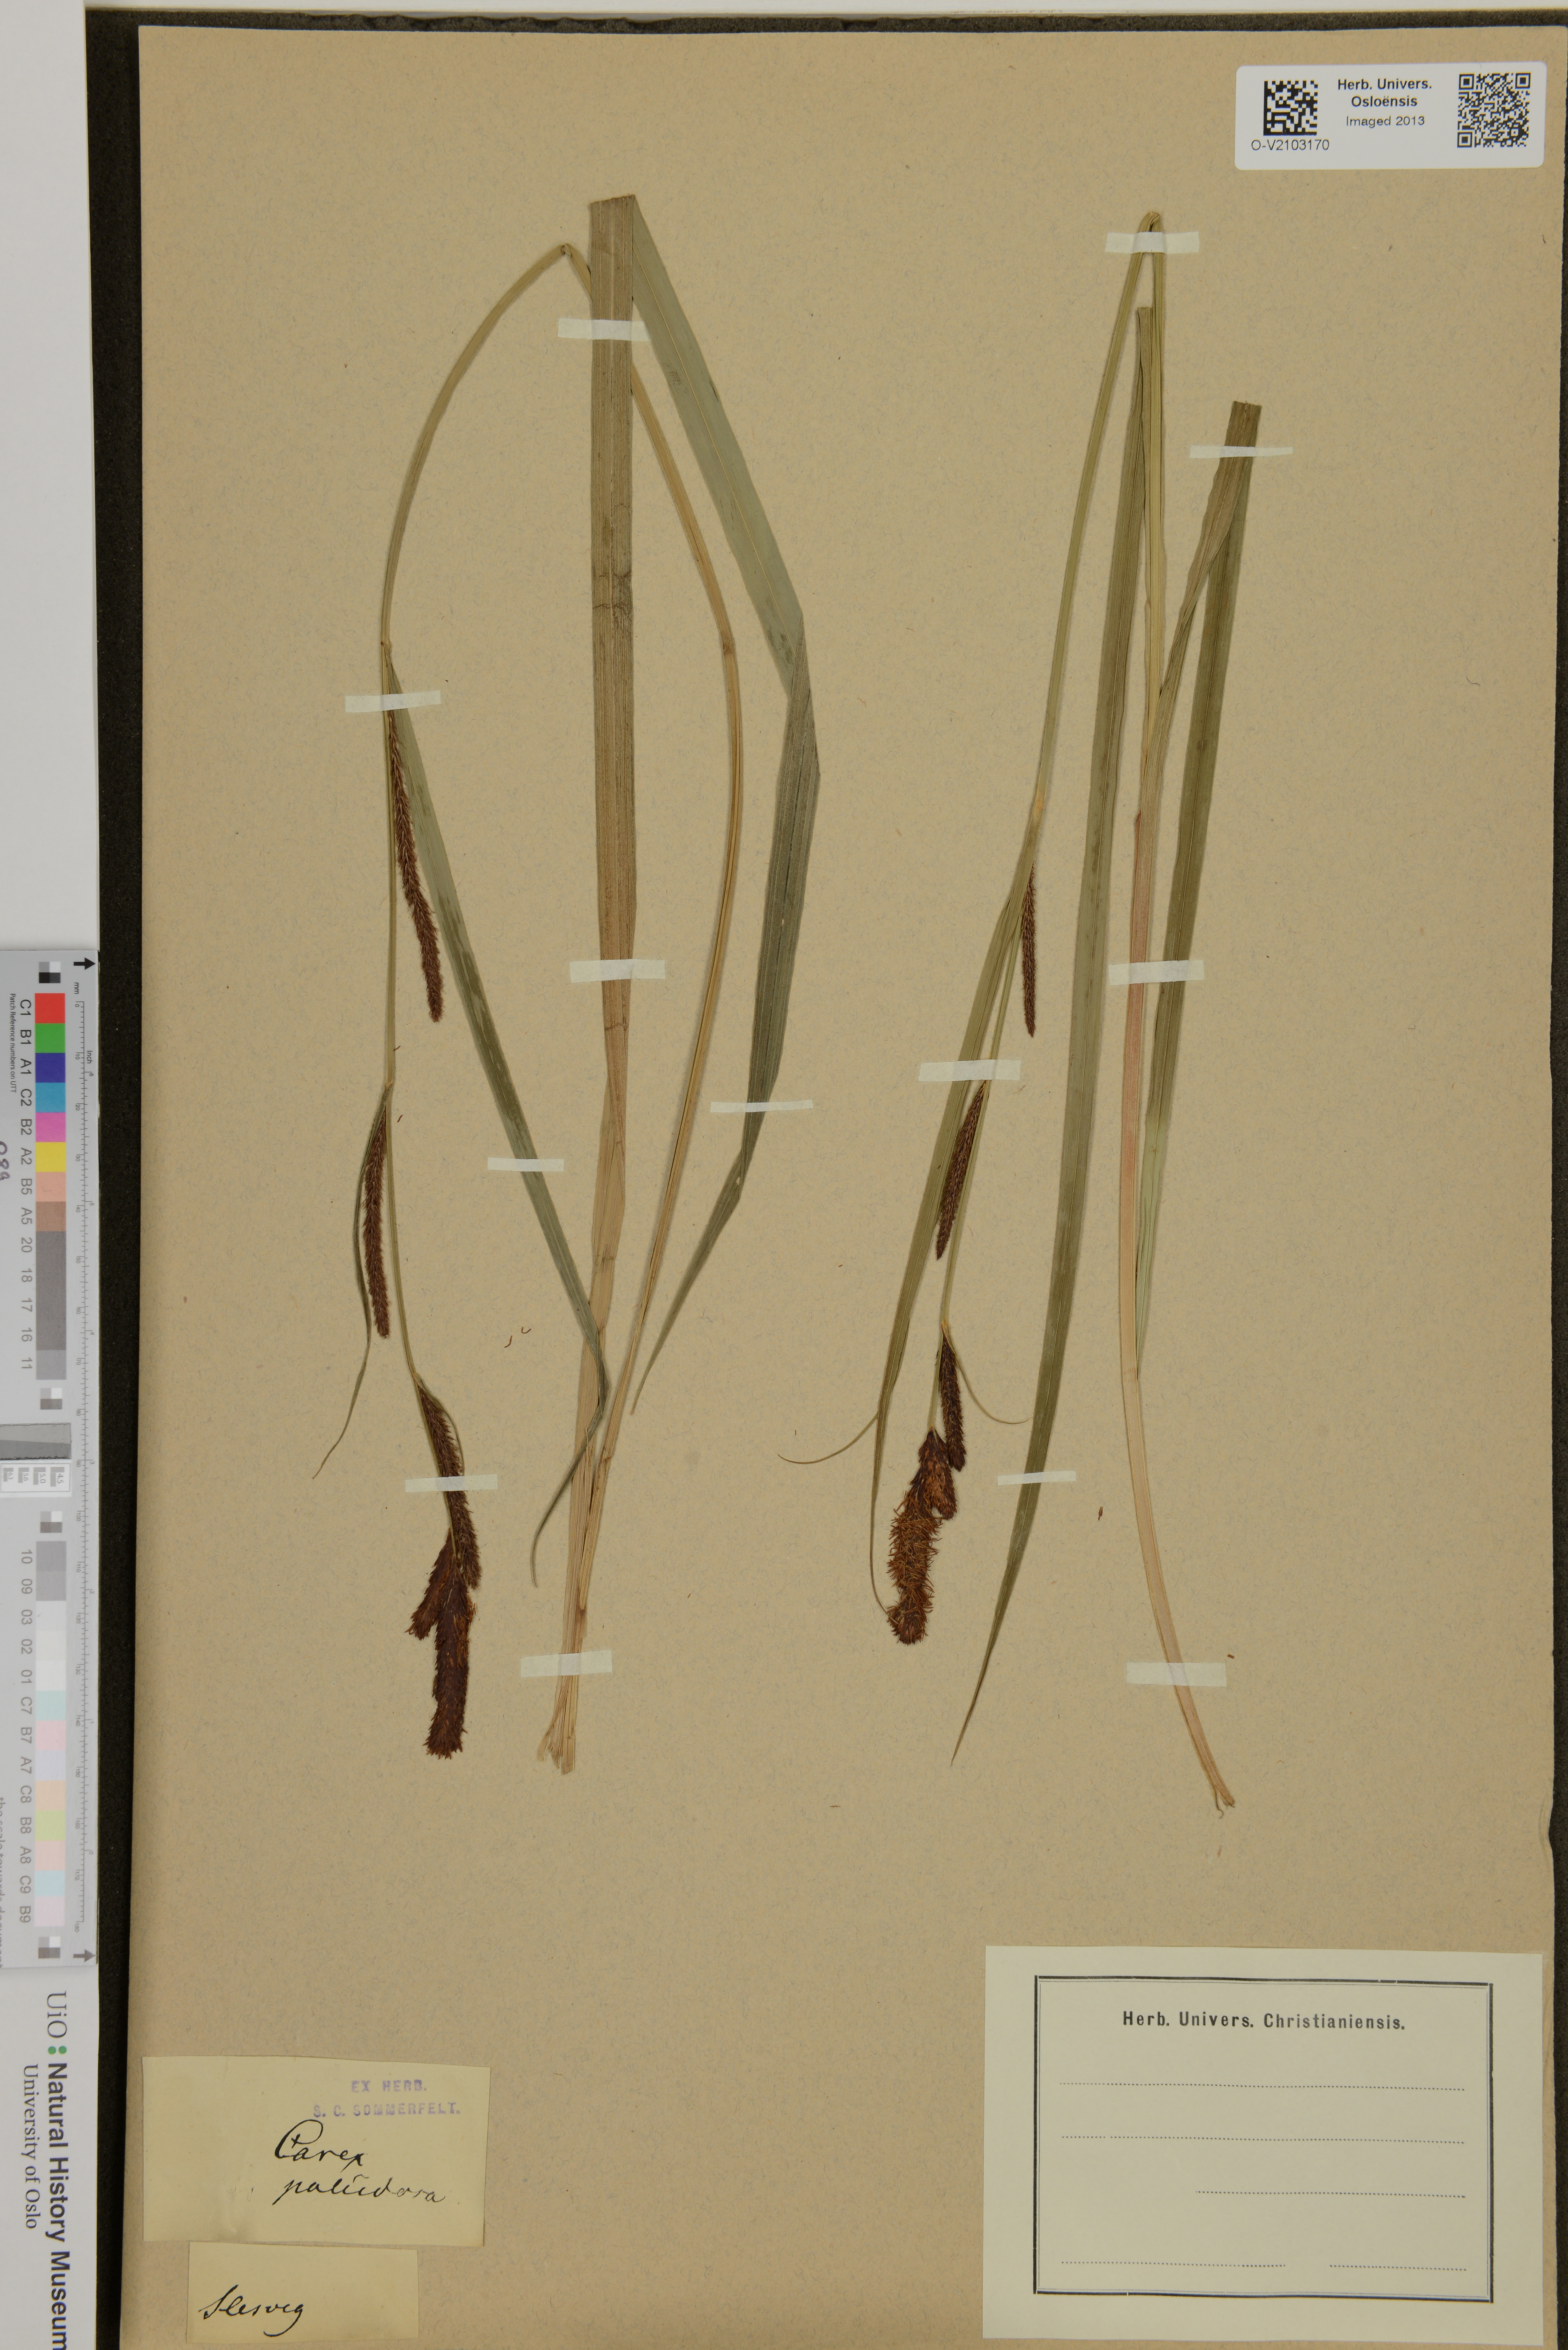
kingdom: Plantae
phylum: Tracheophyta
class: Liliopsida
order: Poales
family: Cyperaceae
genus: Carex
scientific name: Carex acutiformis
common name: Lesser pond-sedge
